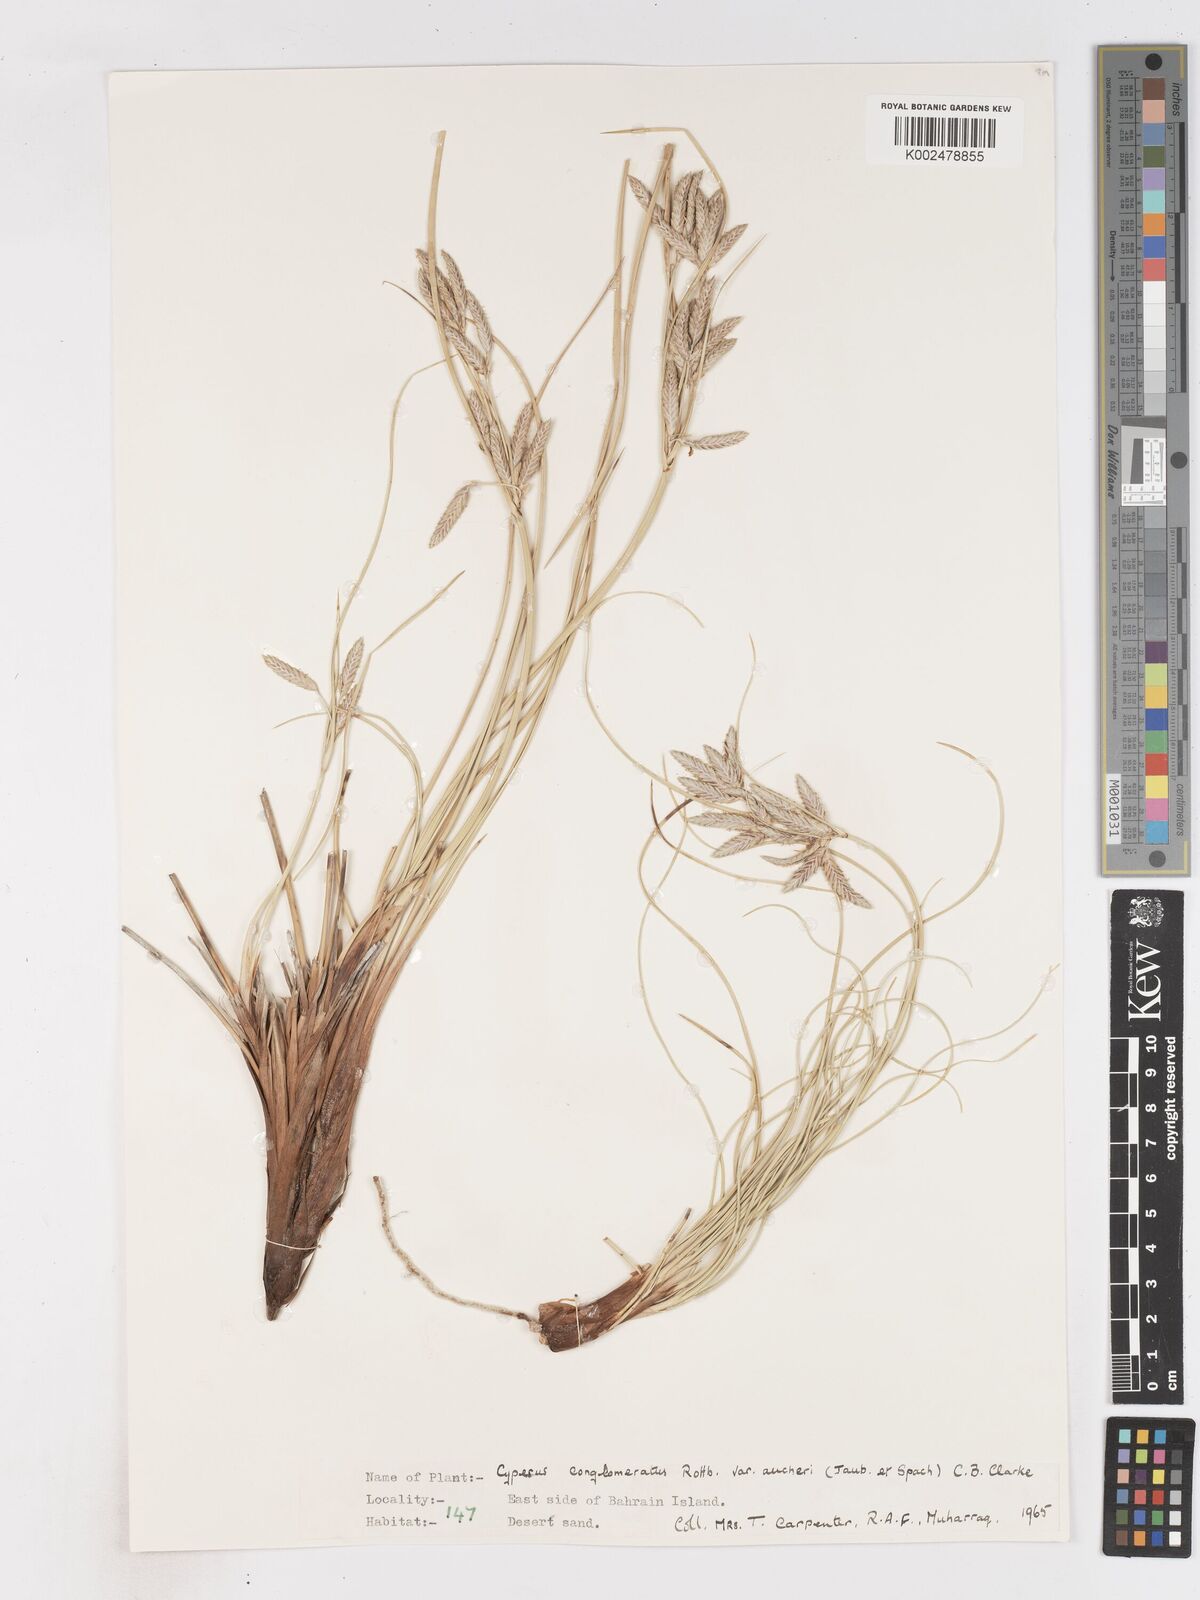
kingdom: Plantae
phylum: Tracheophyta
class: Liliopsida
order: Poales
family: Cyperaceae
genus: Cyperus
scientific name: Cyperus aucheri
